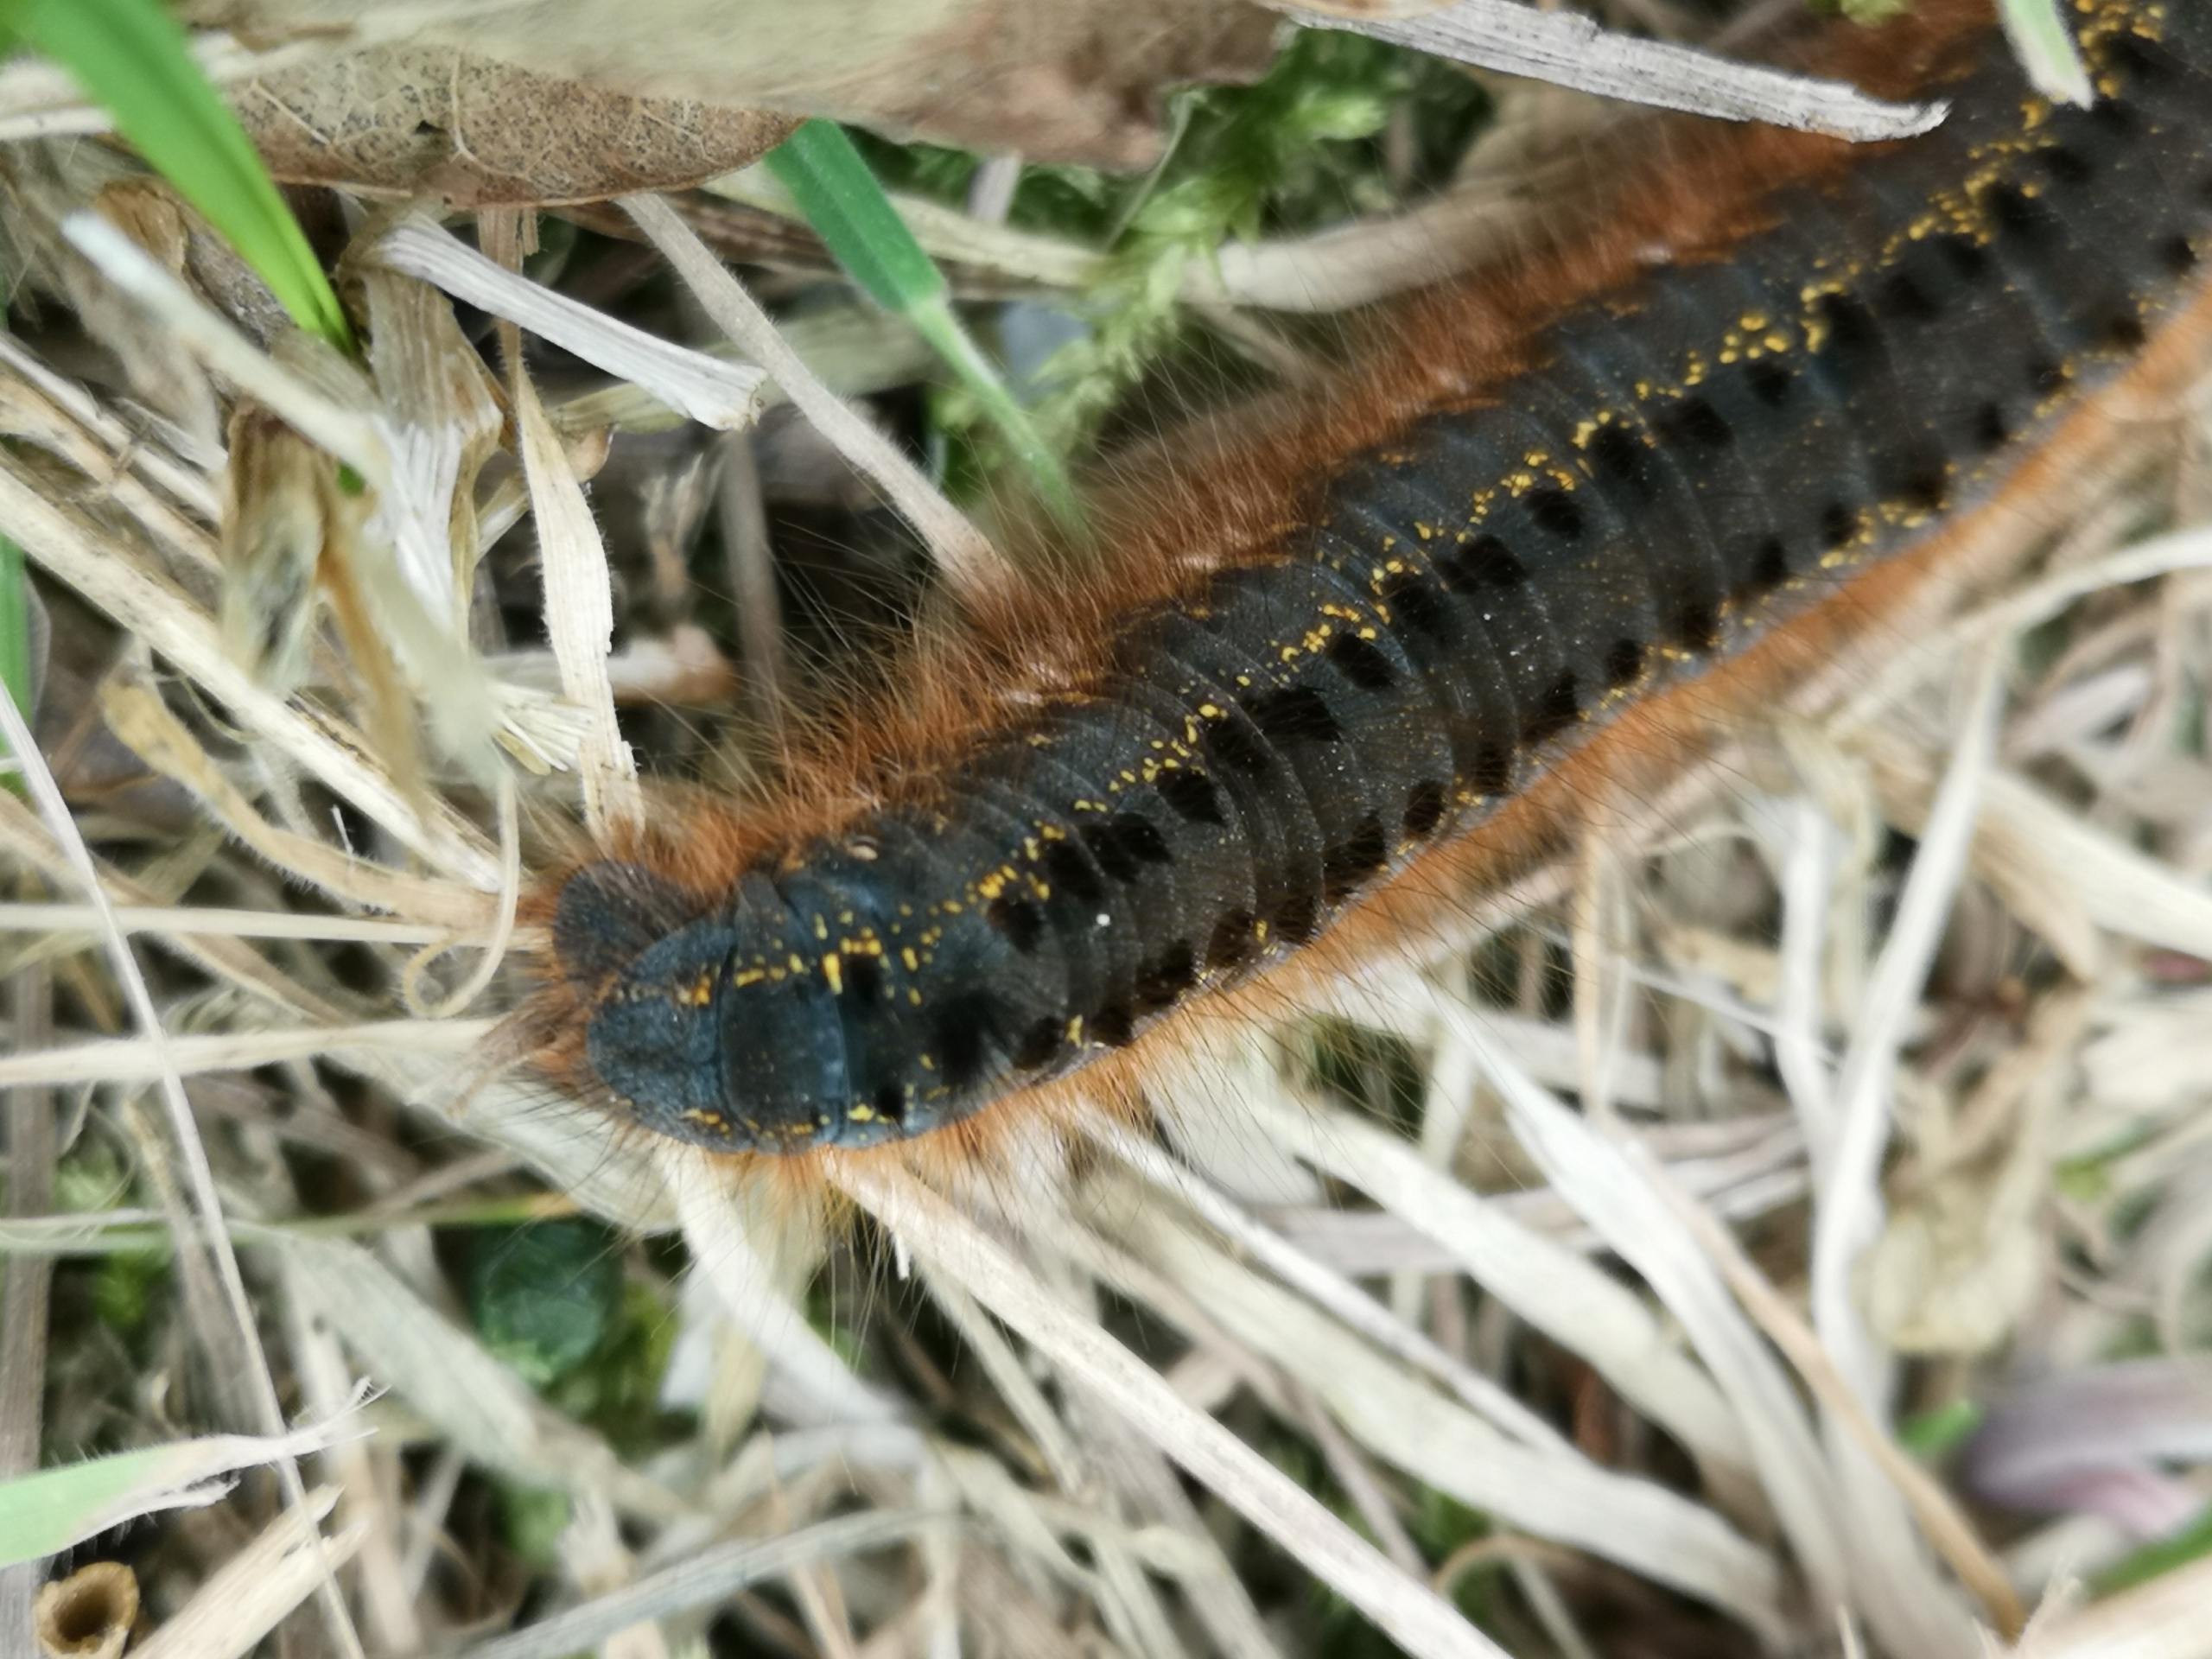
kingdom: Animalia
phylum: Arthropoda
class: Insecta
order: Lepidoptera
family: Lasiocampidae
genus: Euthrix
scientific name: Euthrix potatoria
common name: Græsspinder
